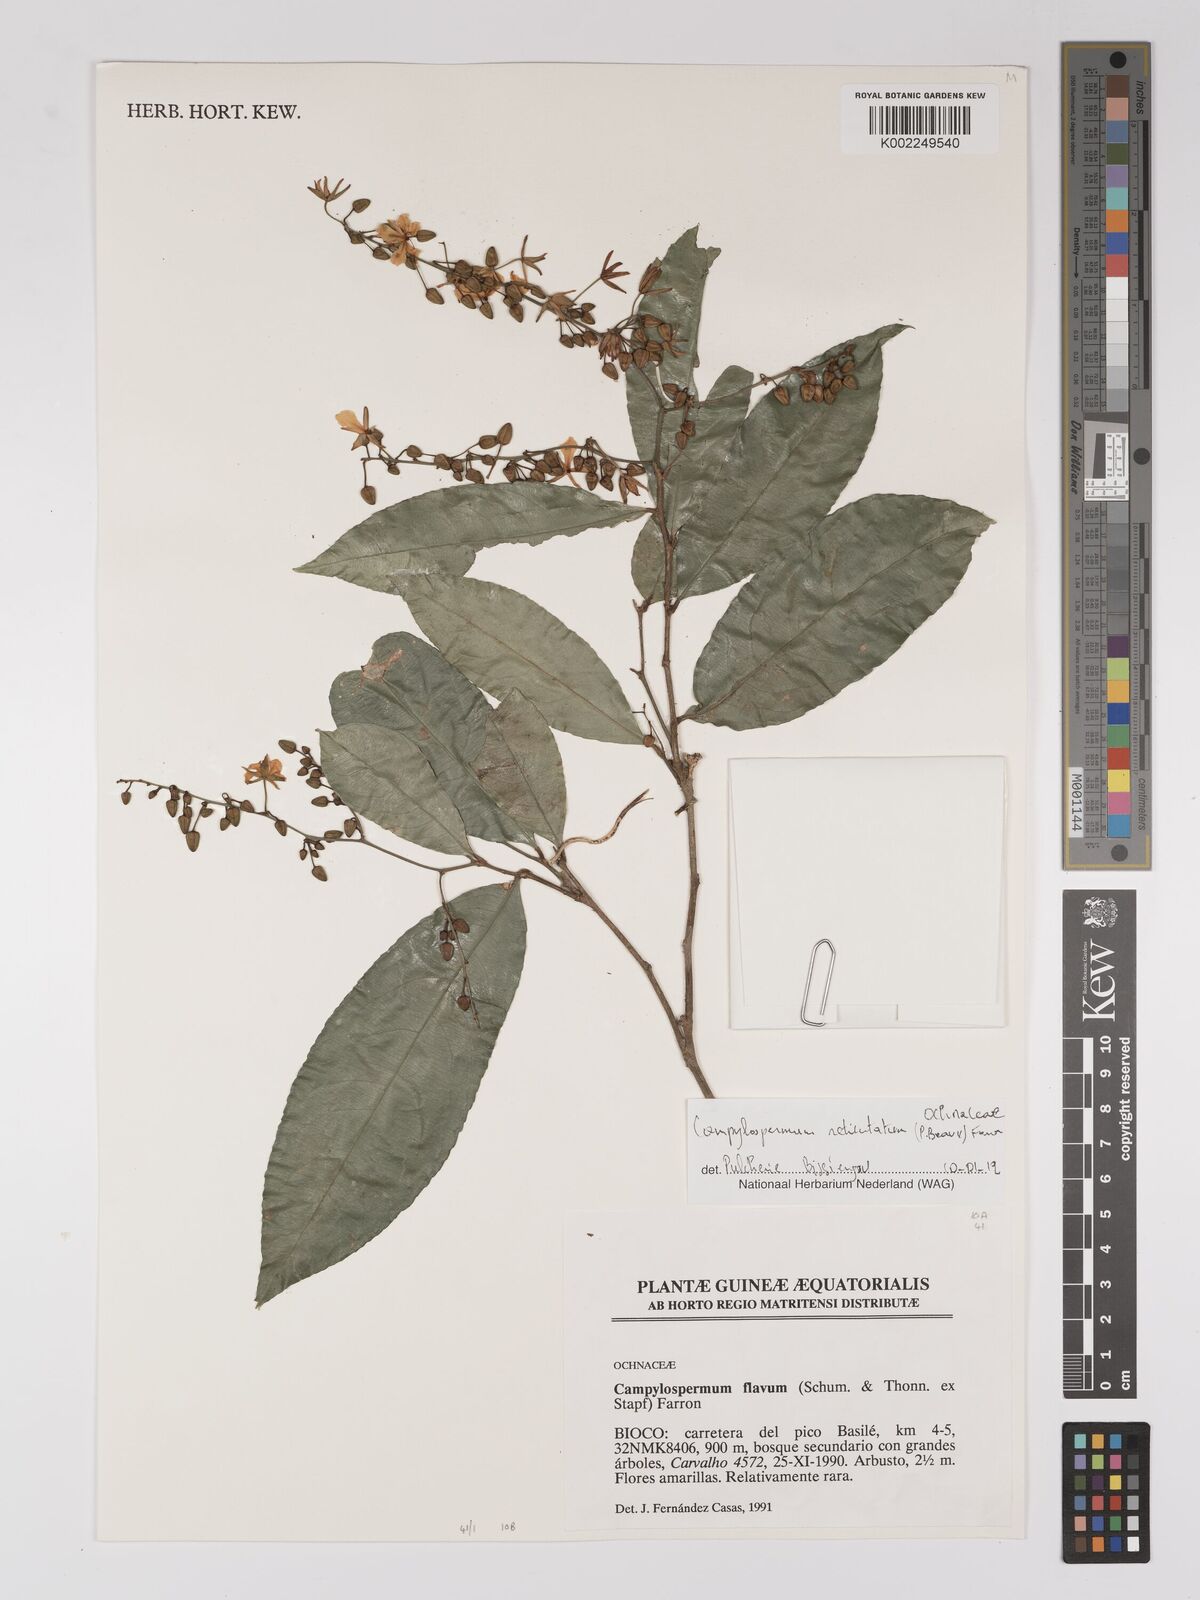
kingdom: Plantae
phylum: Tracheophyta
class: Magnoliopsida
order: Malpighiales
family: Ochnaceae
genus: Campylospermum
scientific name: Campylospermum reticulatum
